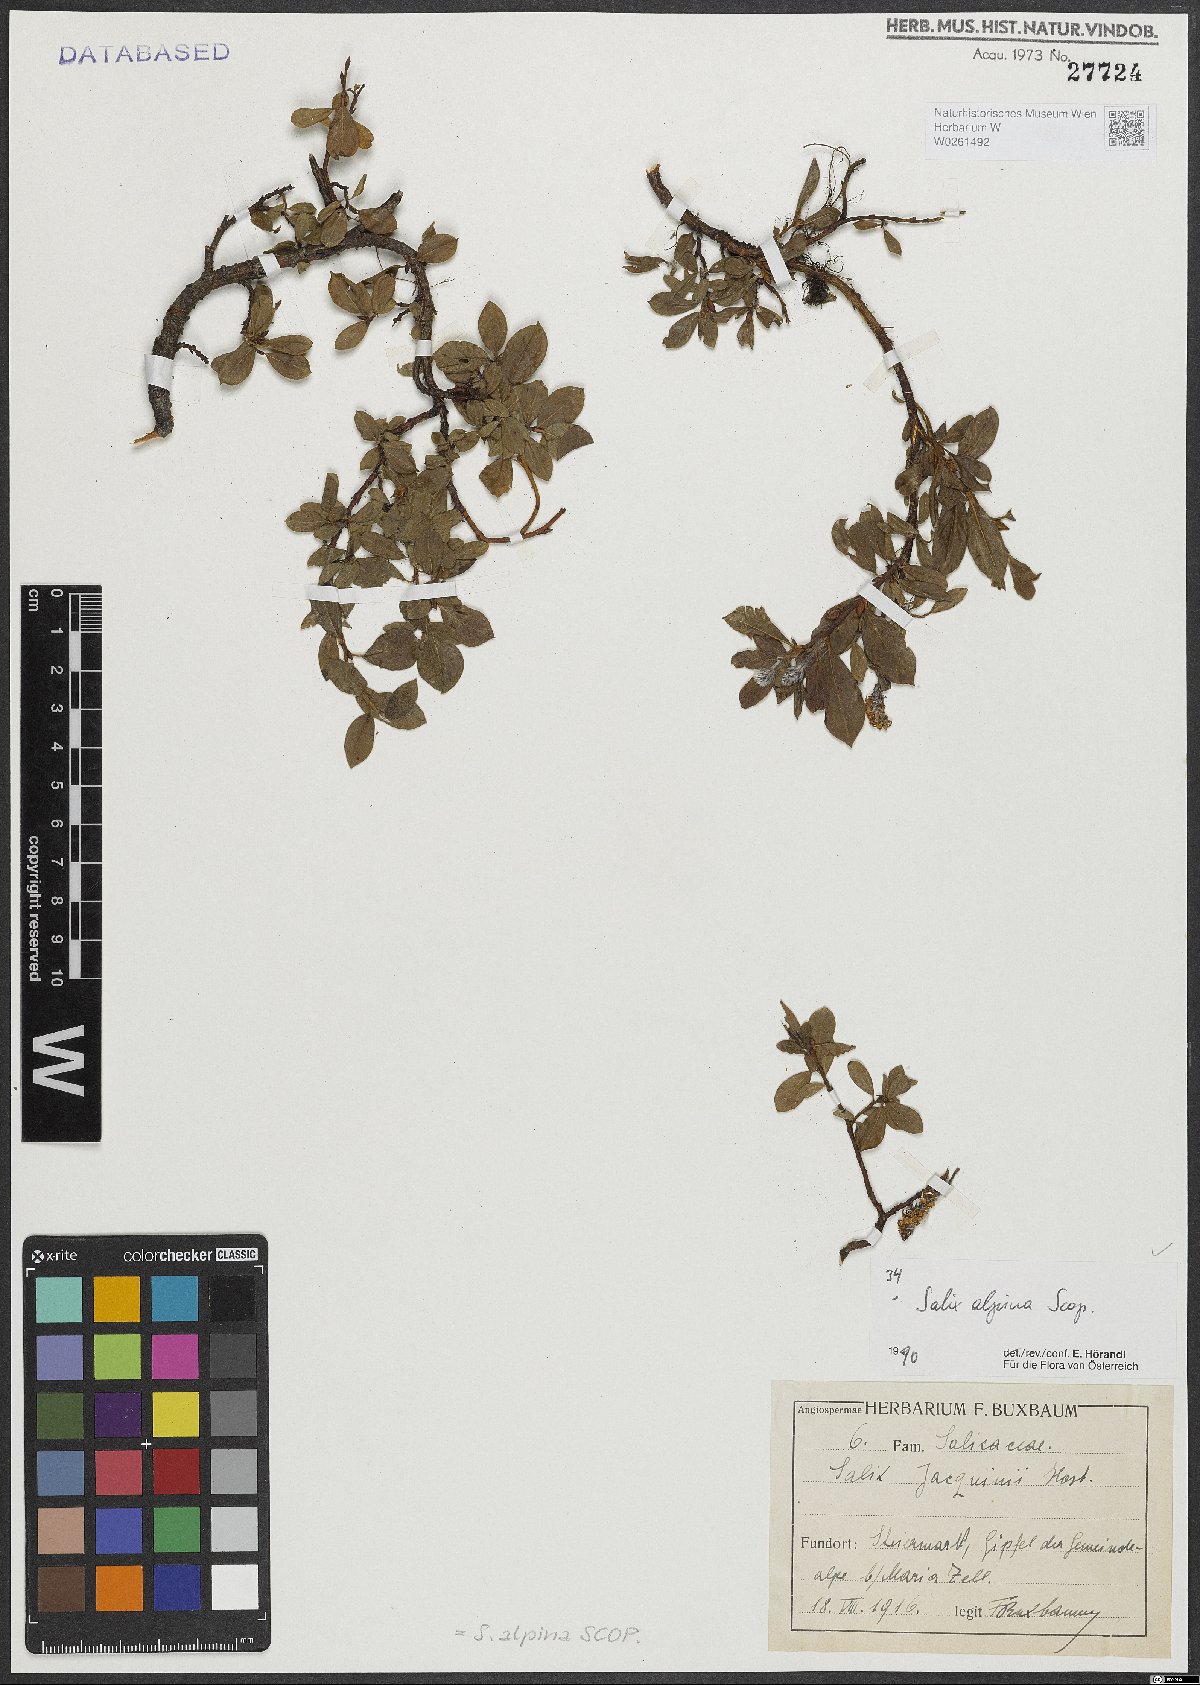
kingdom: Plantae
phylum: Tracheophyta
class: Magnoliopsida
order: Malpighiales
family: Salicaceae
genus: Salix
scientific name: Salix alpina
